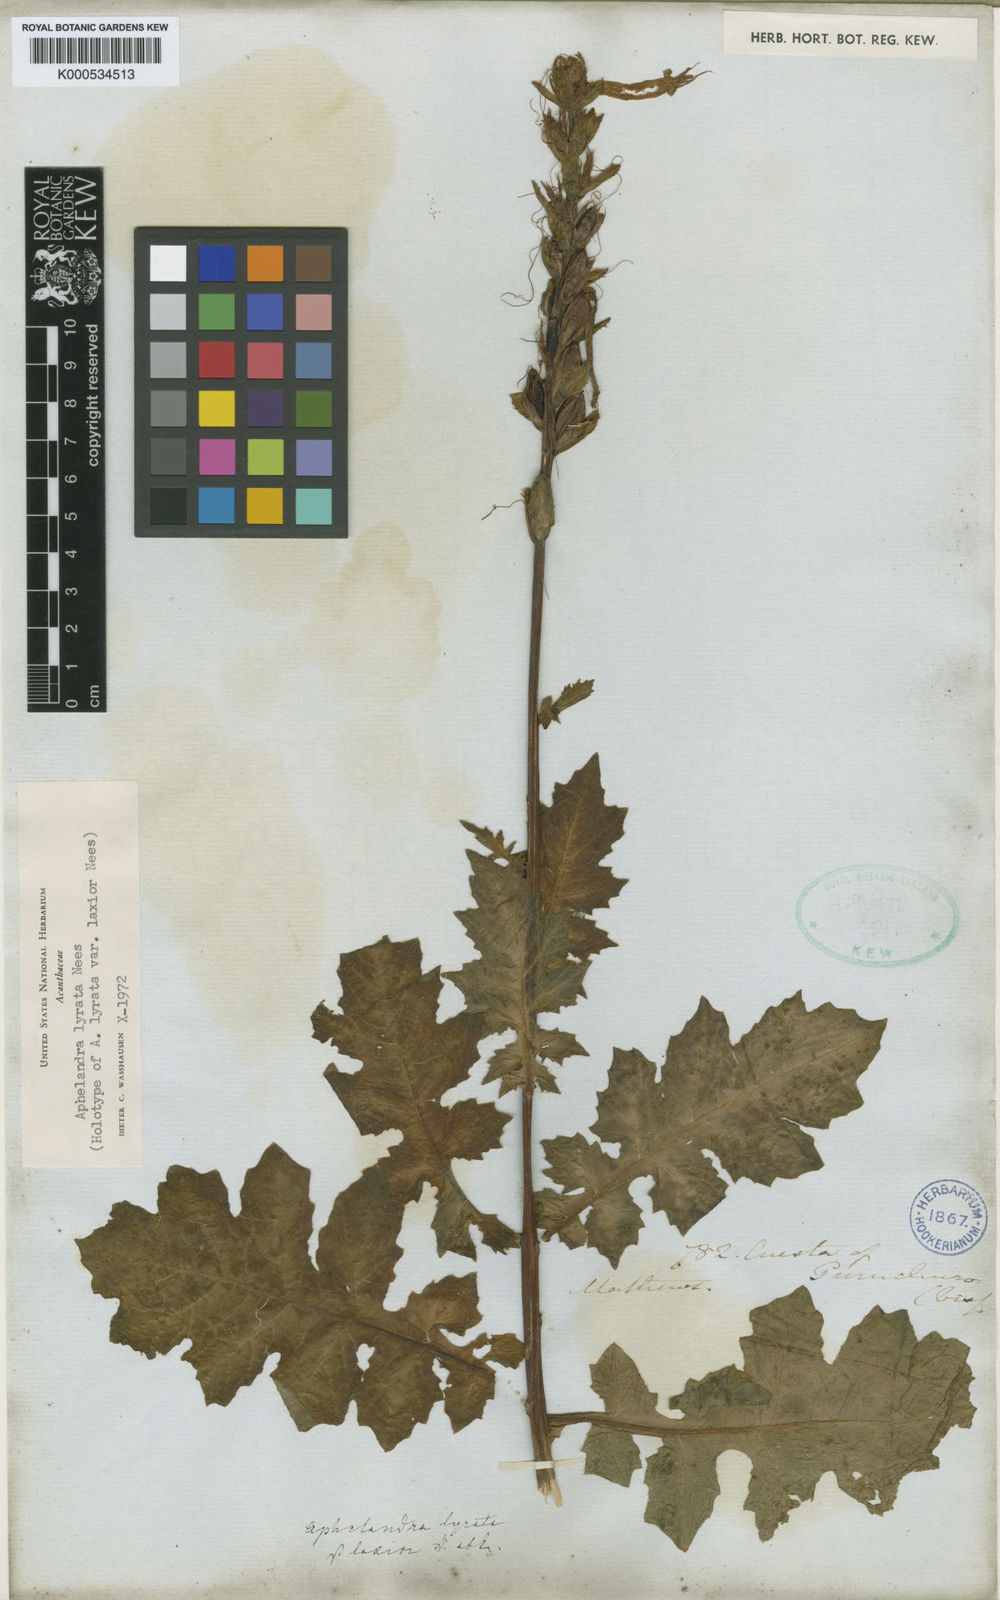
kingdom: Plantae
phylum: Tracheophyta
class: Magnoliopsida
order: Lamiales
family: Acanthaceae
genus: Aphelandra
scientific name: Aphelandra lyrata
